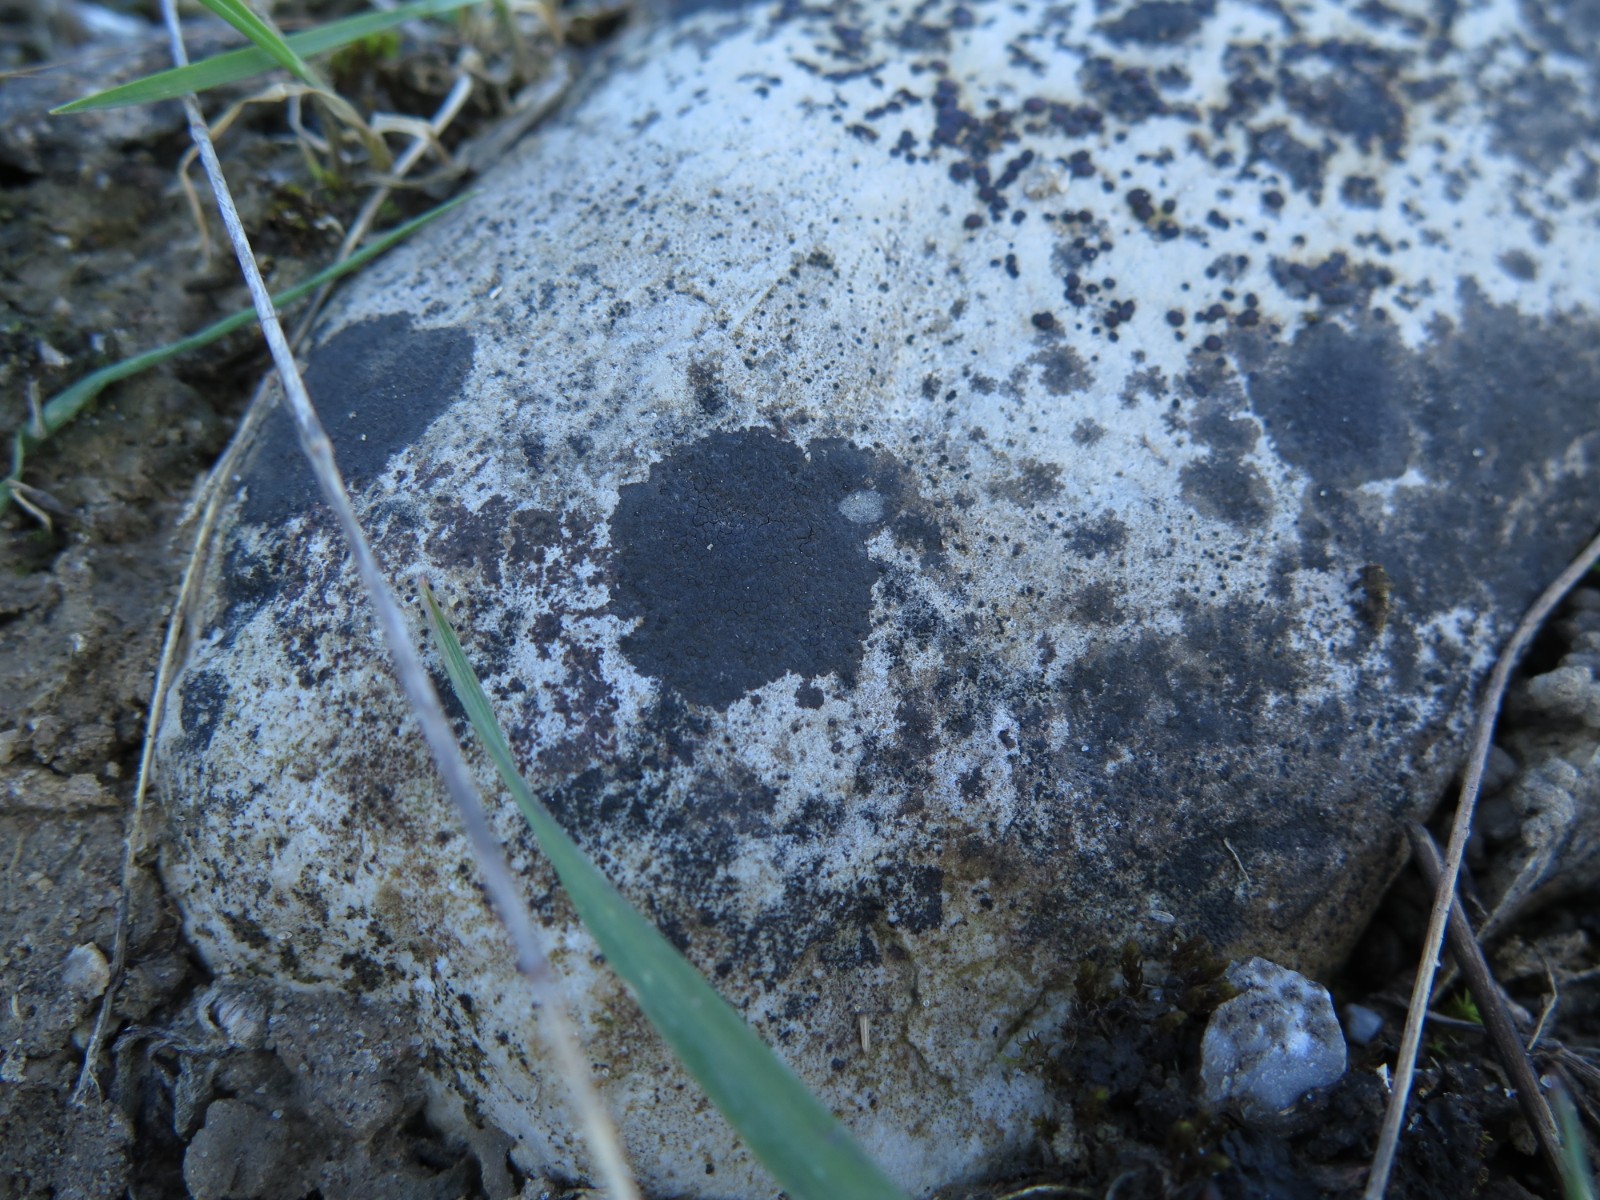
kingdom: Fungi
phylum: Ascomycota
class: Eurotiomycetes
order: Verrucariales
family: Verrucariaceae
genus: Verrucaria
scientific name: Verrucaria nigrescens
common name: sortbrun vortelav
